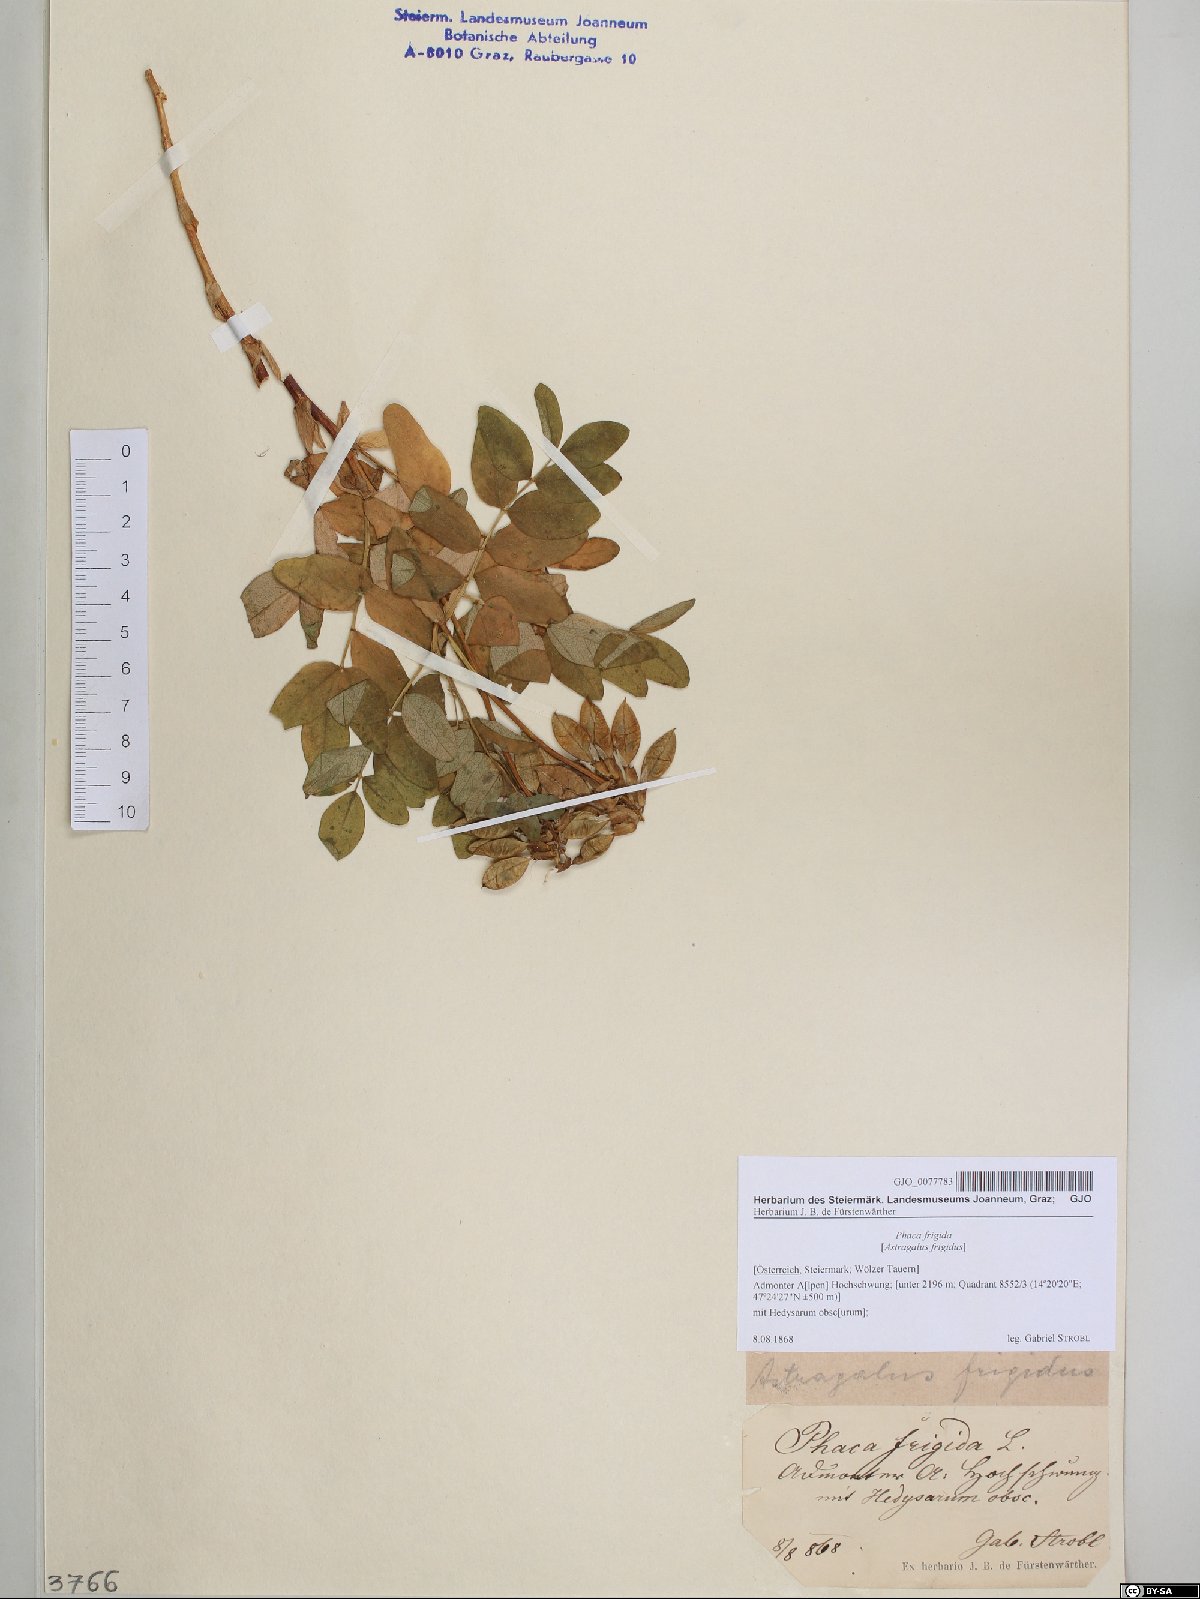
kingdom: Plantae
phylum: Tracheophyta
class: Magnoliopsida
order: Fabales
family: Fabaceae
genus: Astragalus
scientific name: Astragalus frigidus
